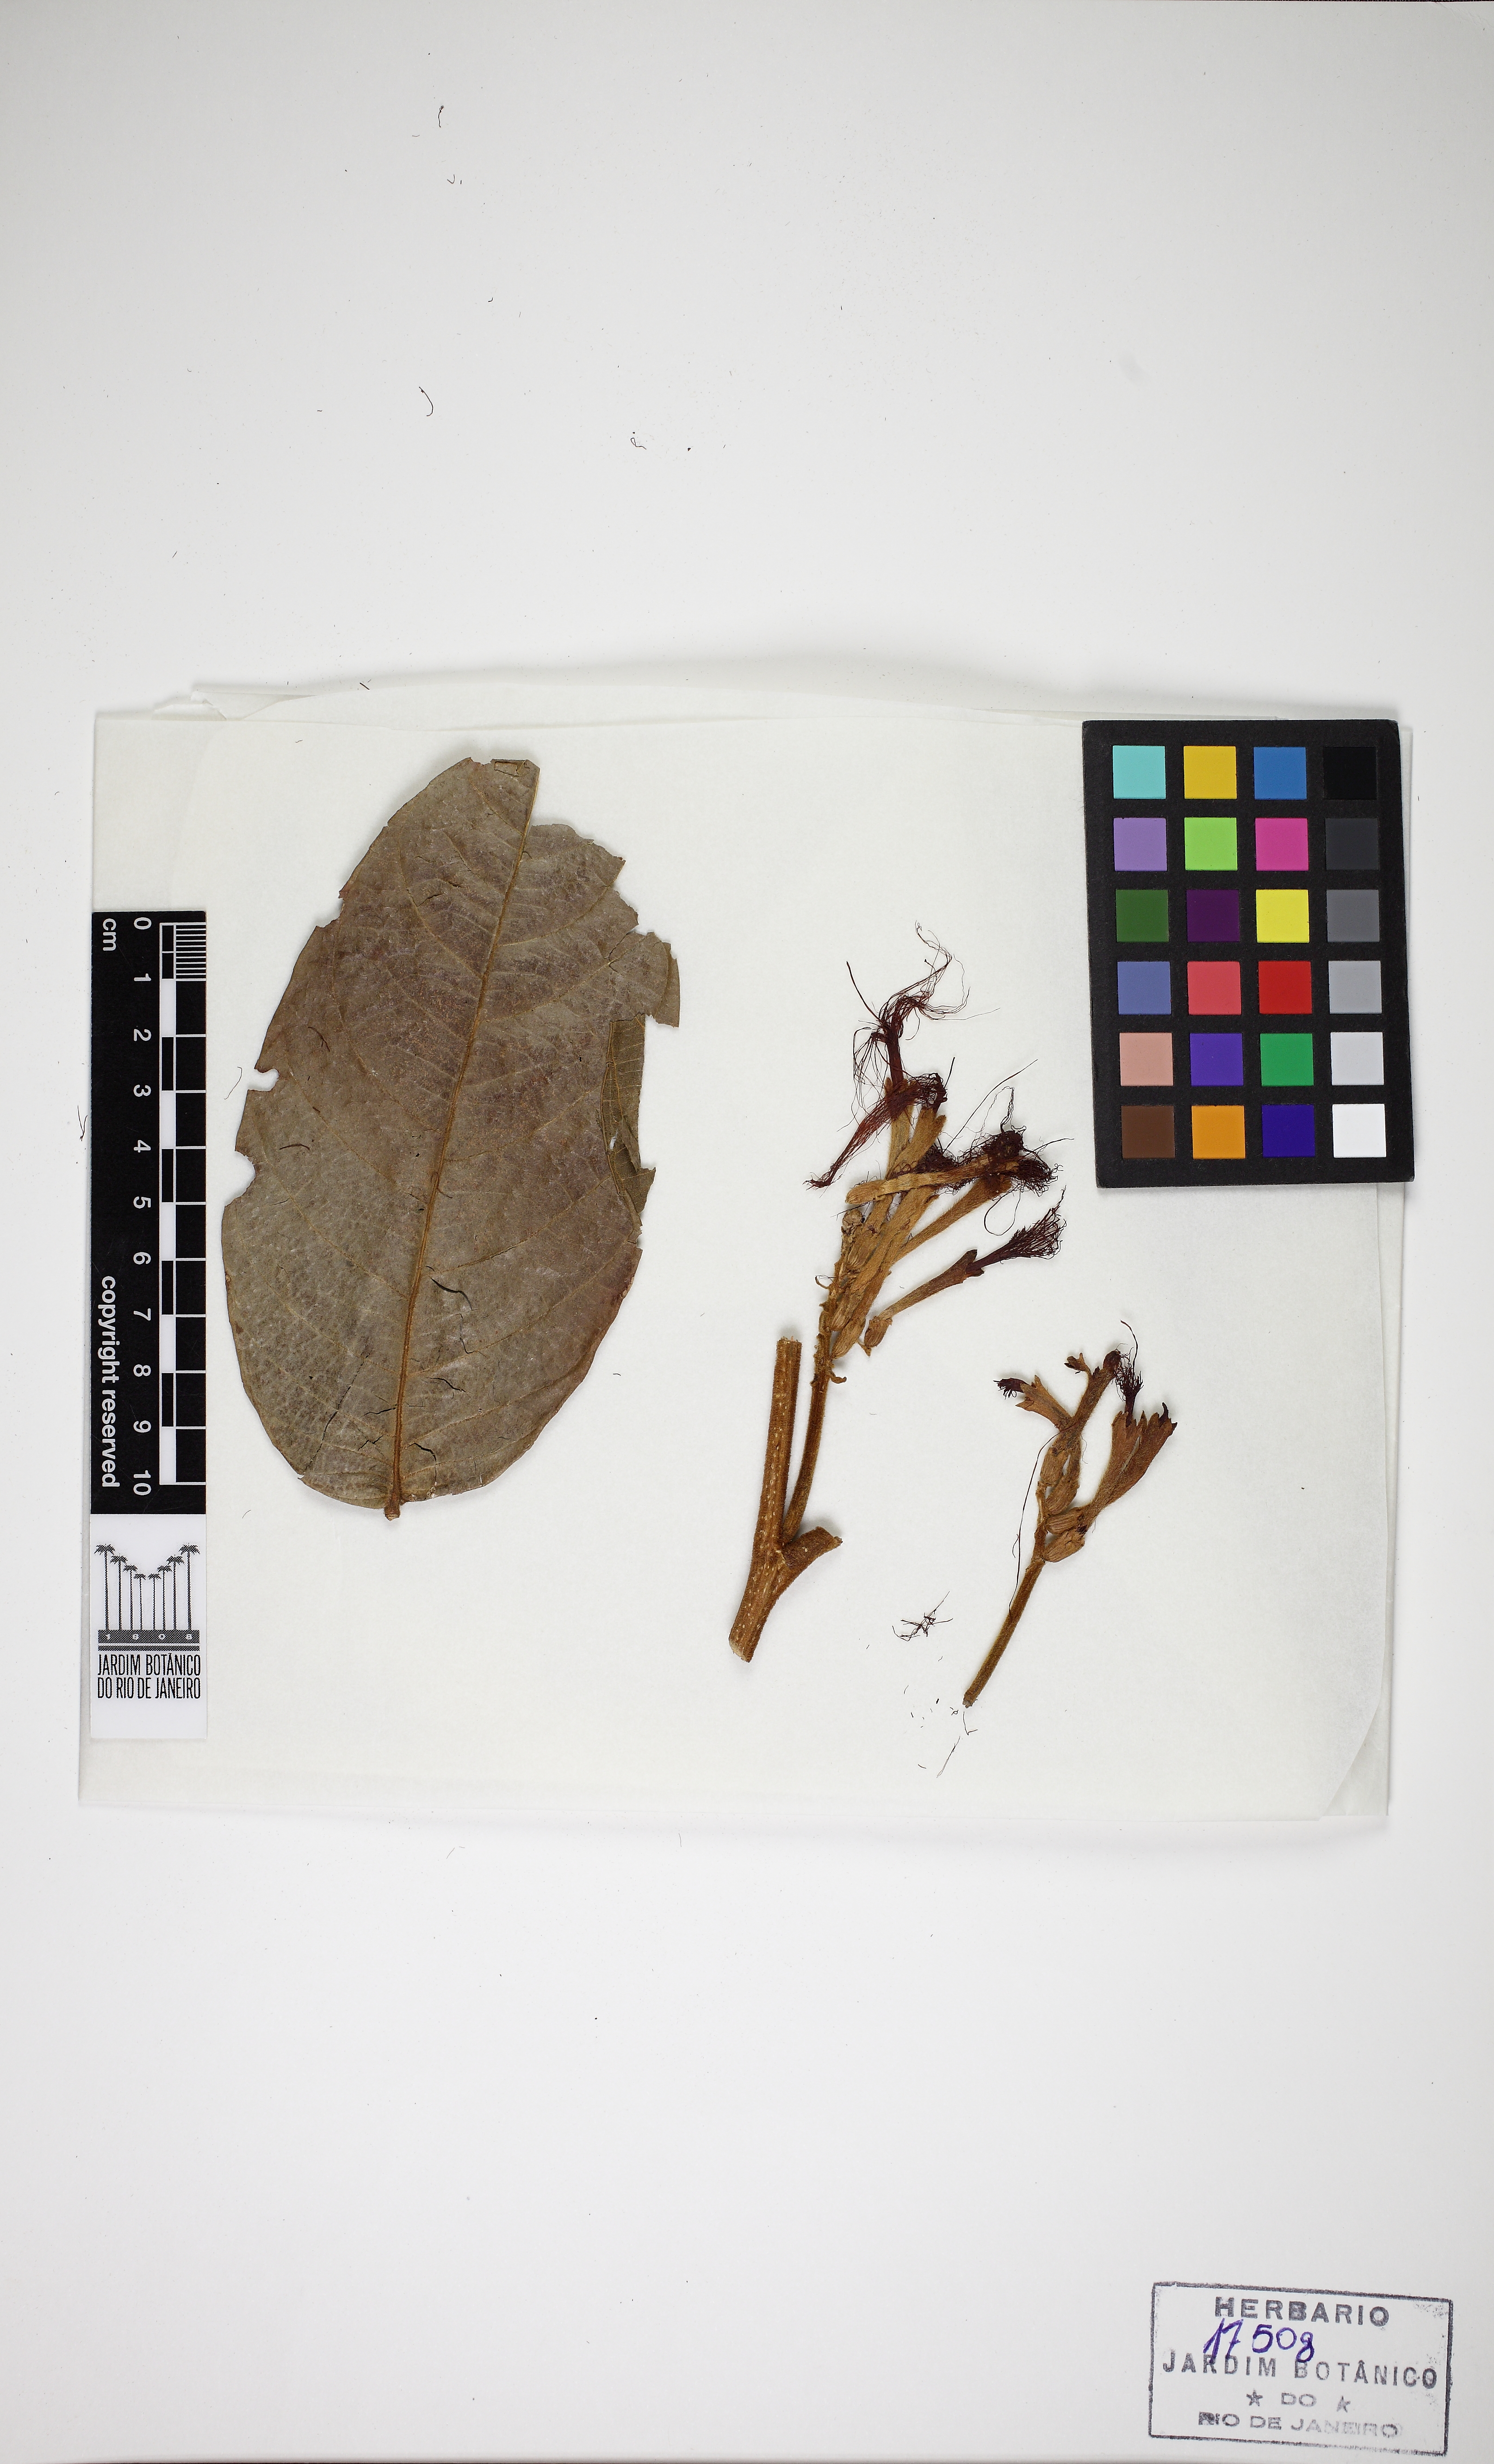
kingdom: Plantae
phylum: Tracheophyta
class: Magnoliopsida
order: Fabales
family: Fabaceae
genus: Inga
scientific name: Inga sapindoides
